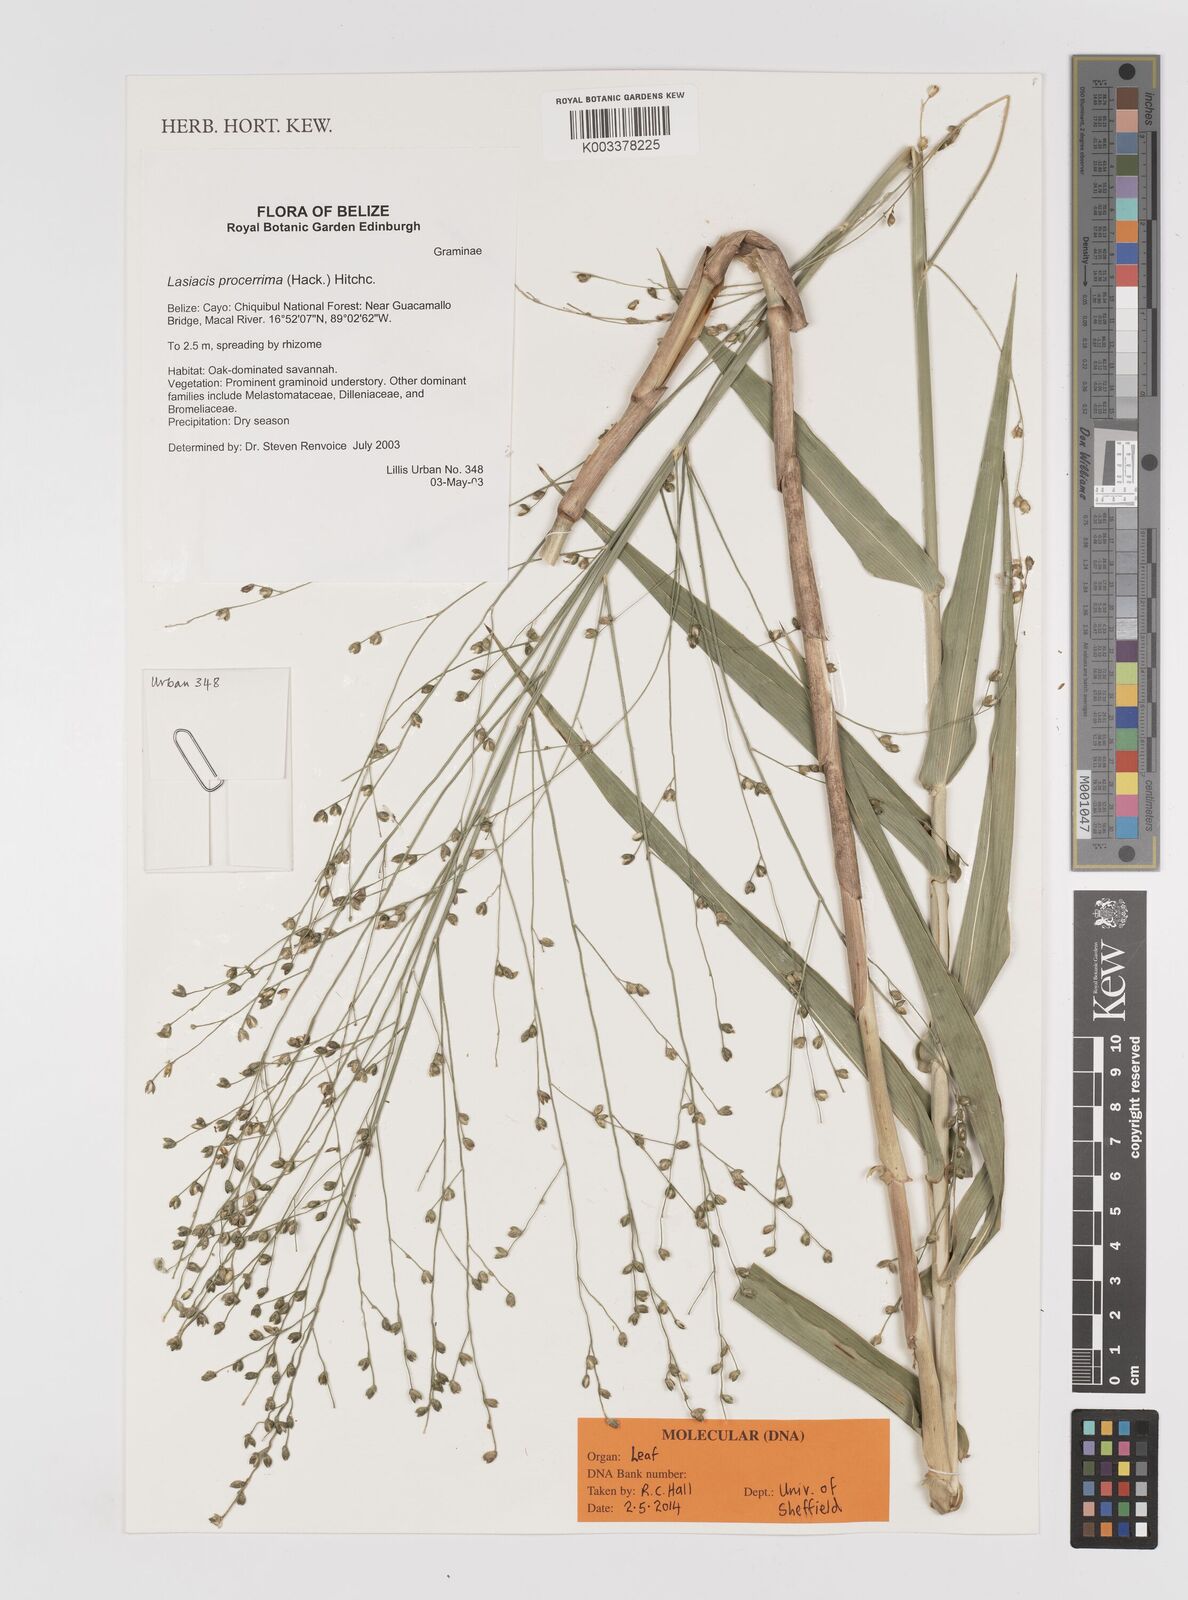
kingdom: Plantae
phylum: Tracheophyta
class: Liliopsida
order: Poales
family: Poaceae
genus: Lasiacis
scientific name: Lasiacis procerrima
